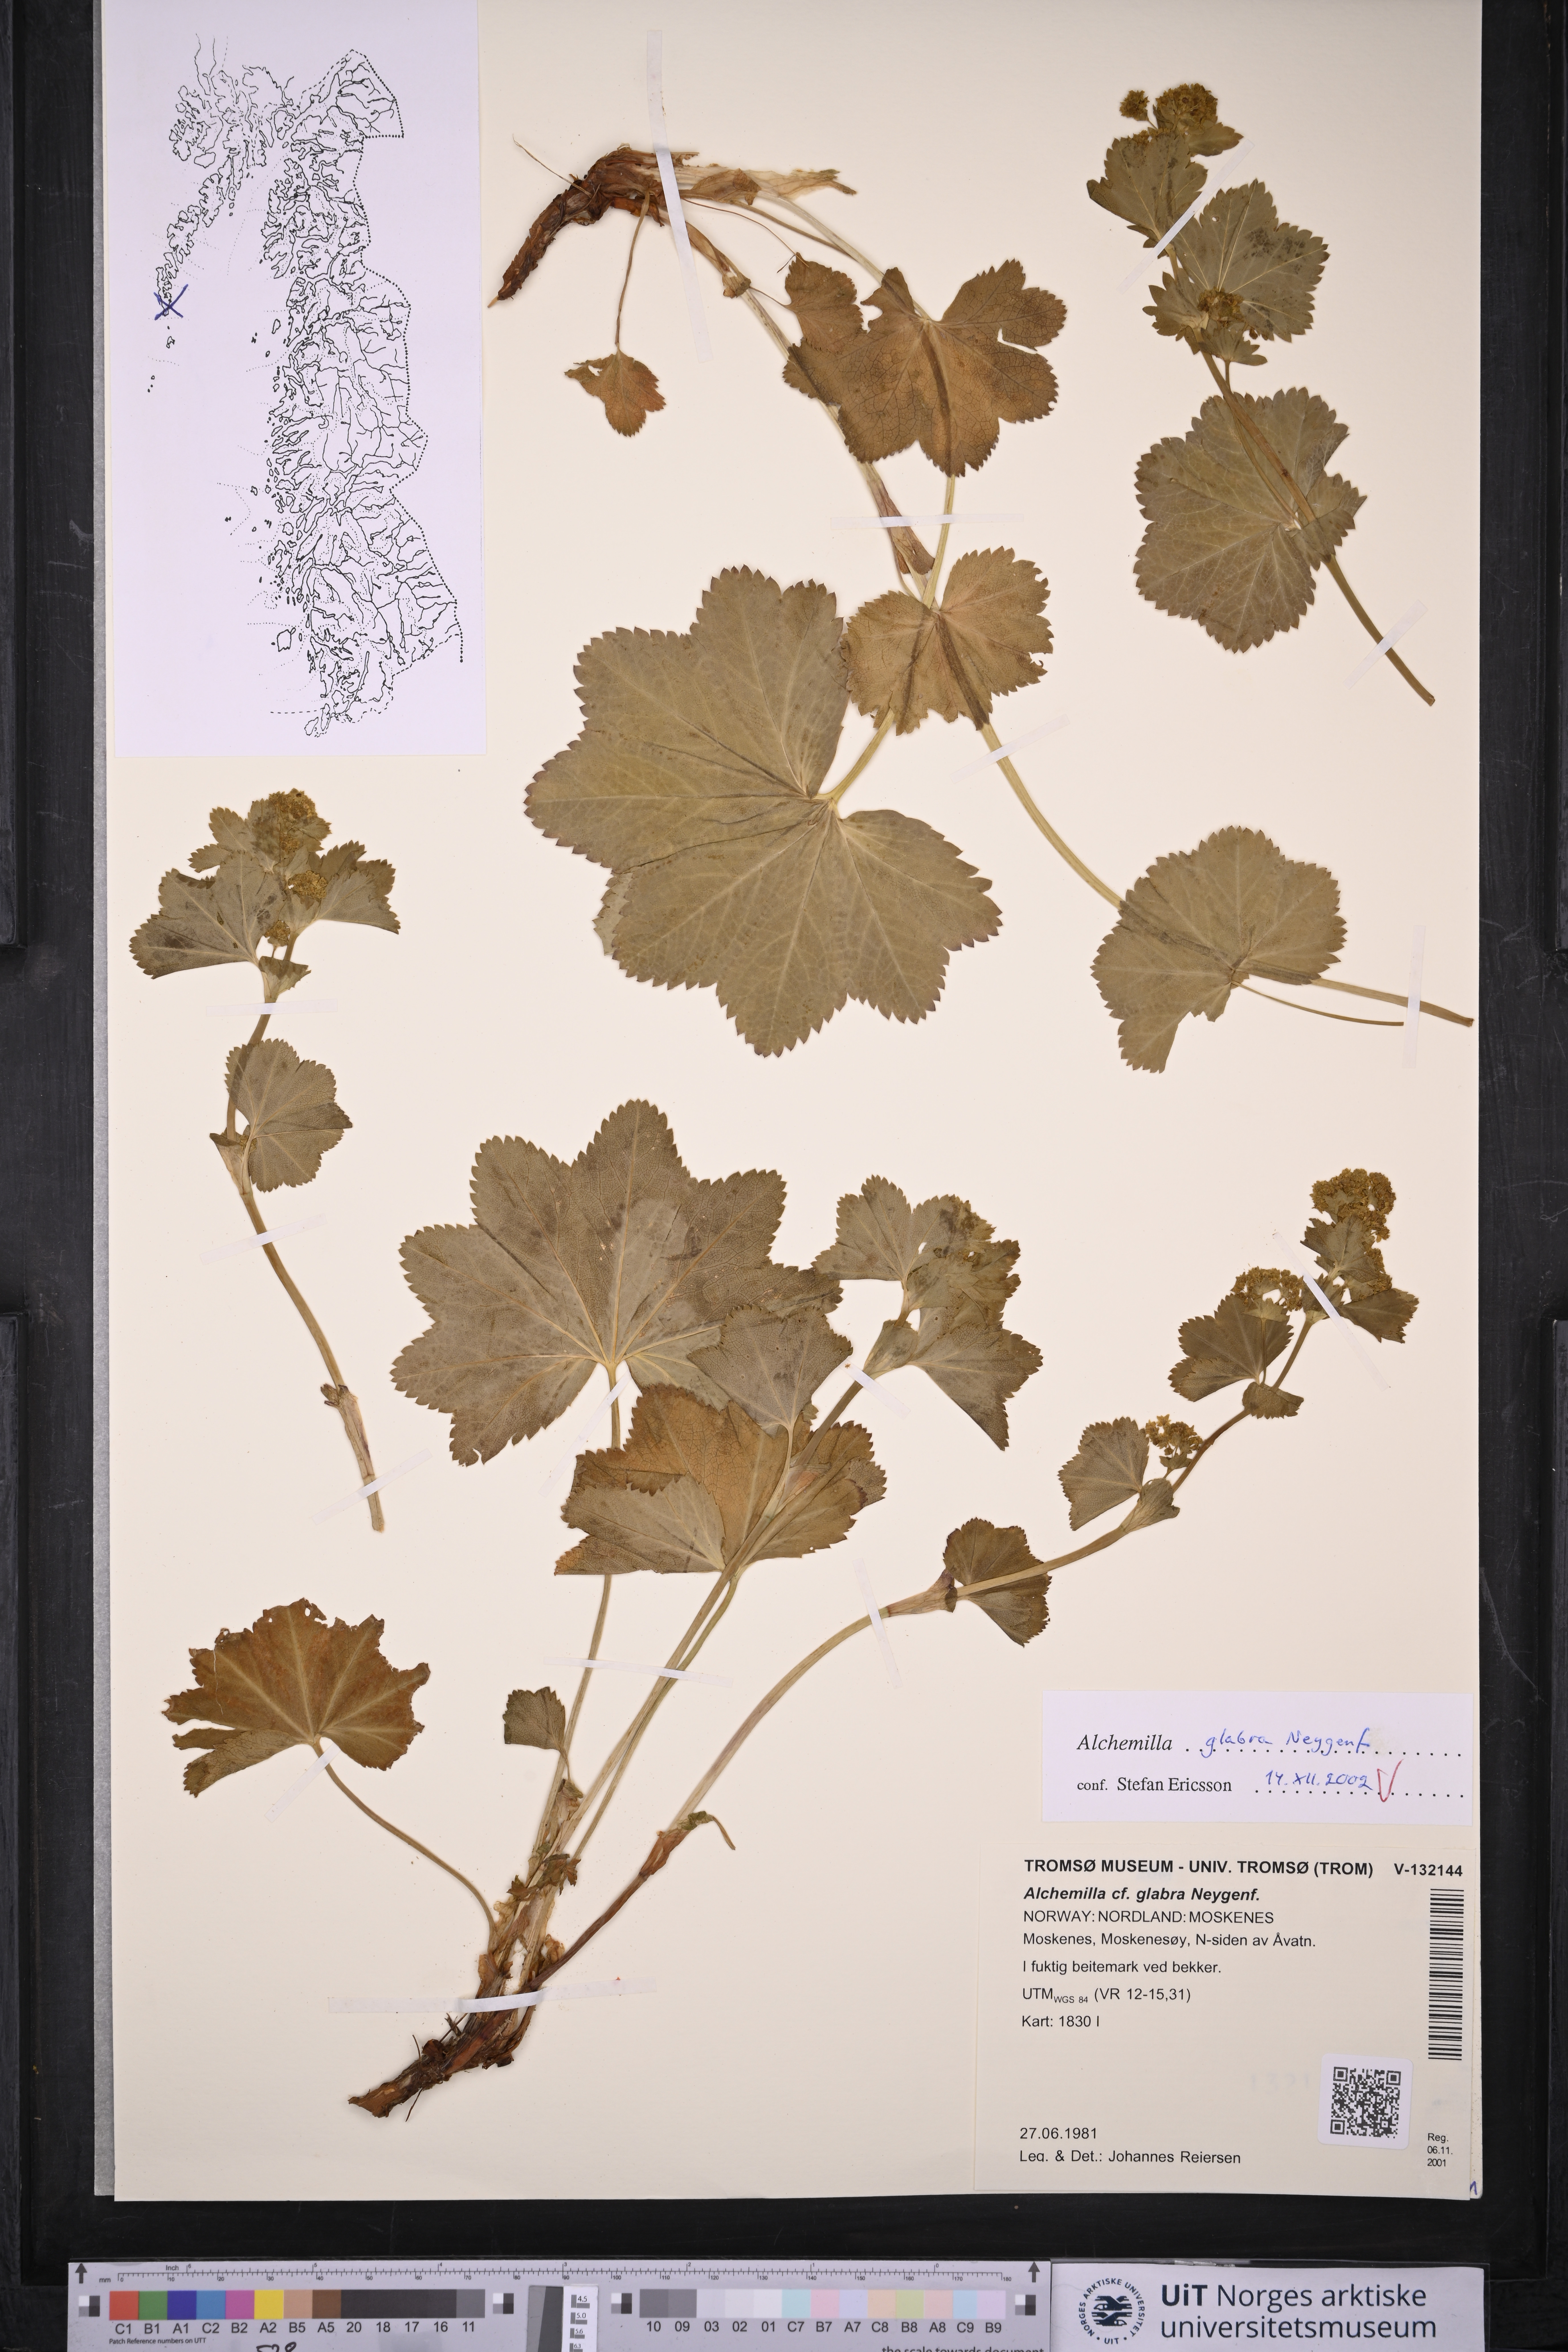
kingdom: Plantae
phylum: Tracheophyta
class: Magnoliopsida
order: Rosales
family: Rosaceae
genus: Alchemilla
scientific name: Alchemilla glabra
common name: Smooth lady's-mantle
